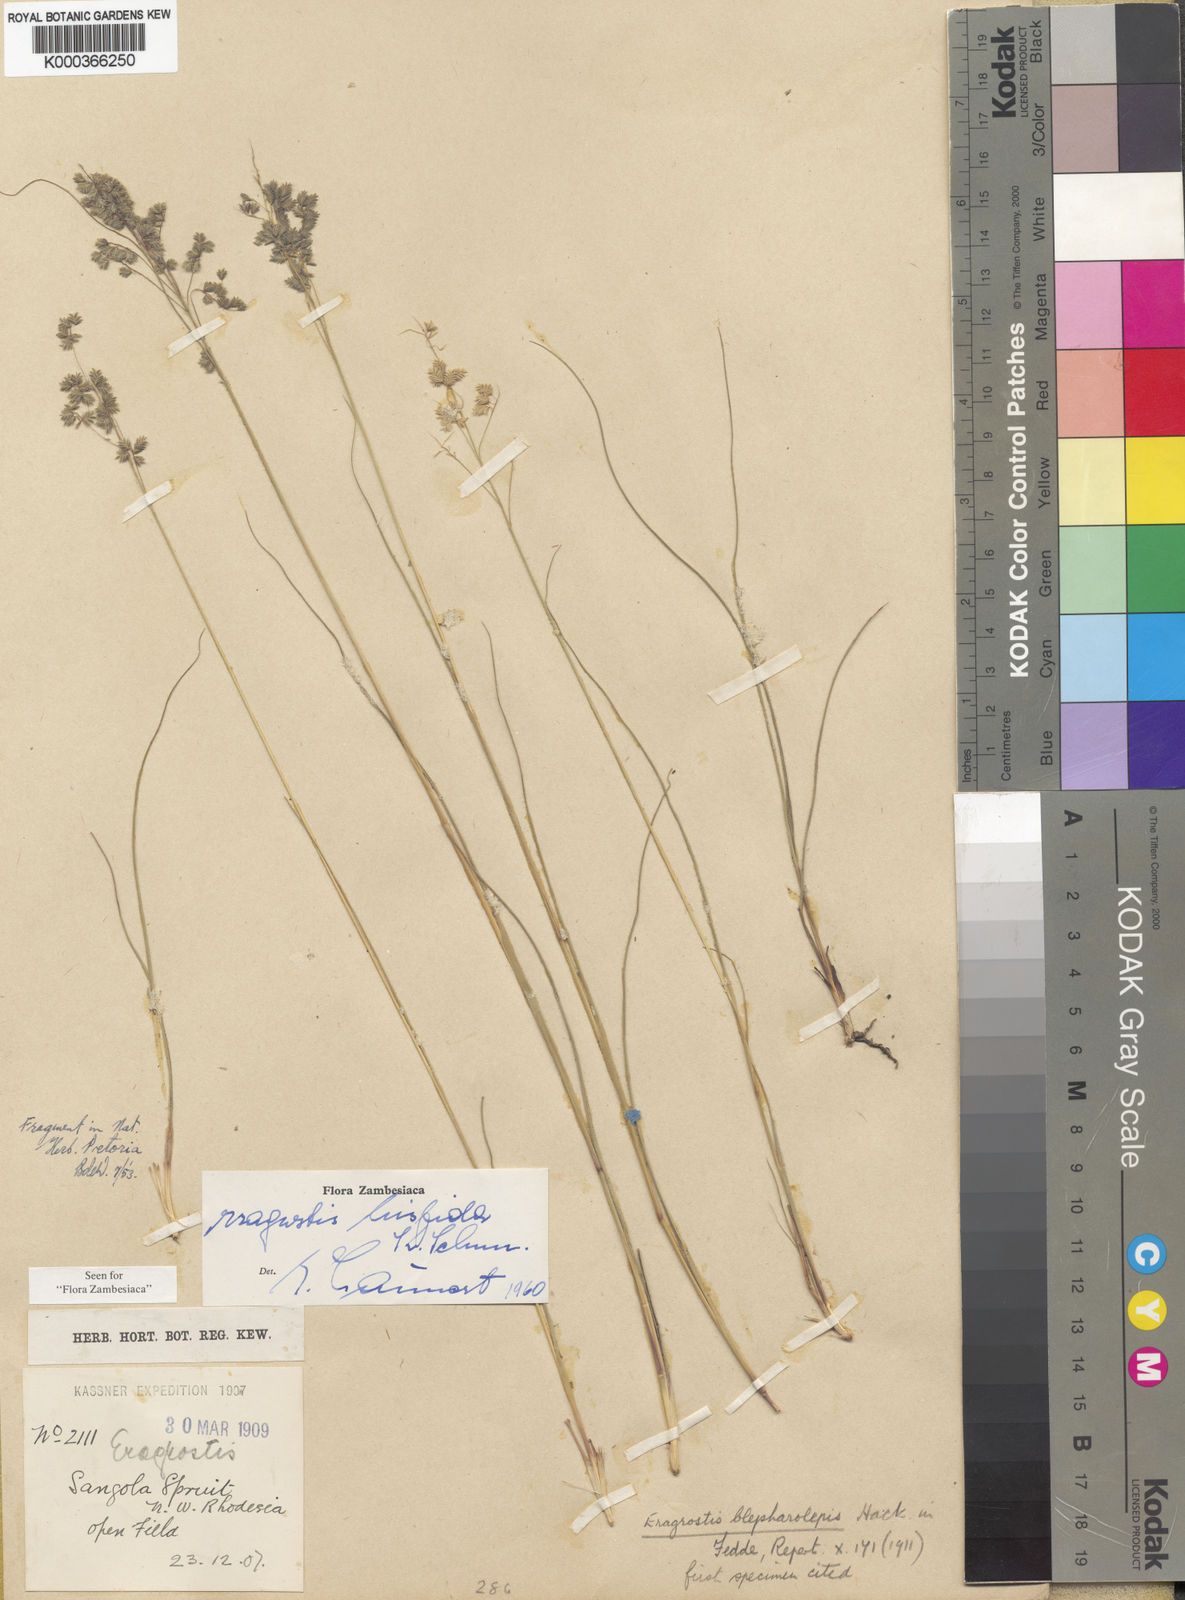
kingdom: Plantae
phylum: Tracheophyta
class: Liliopsida
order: Poales
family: Poaceae
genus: Eragrostis
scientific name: Eragrostis hispida
